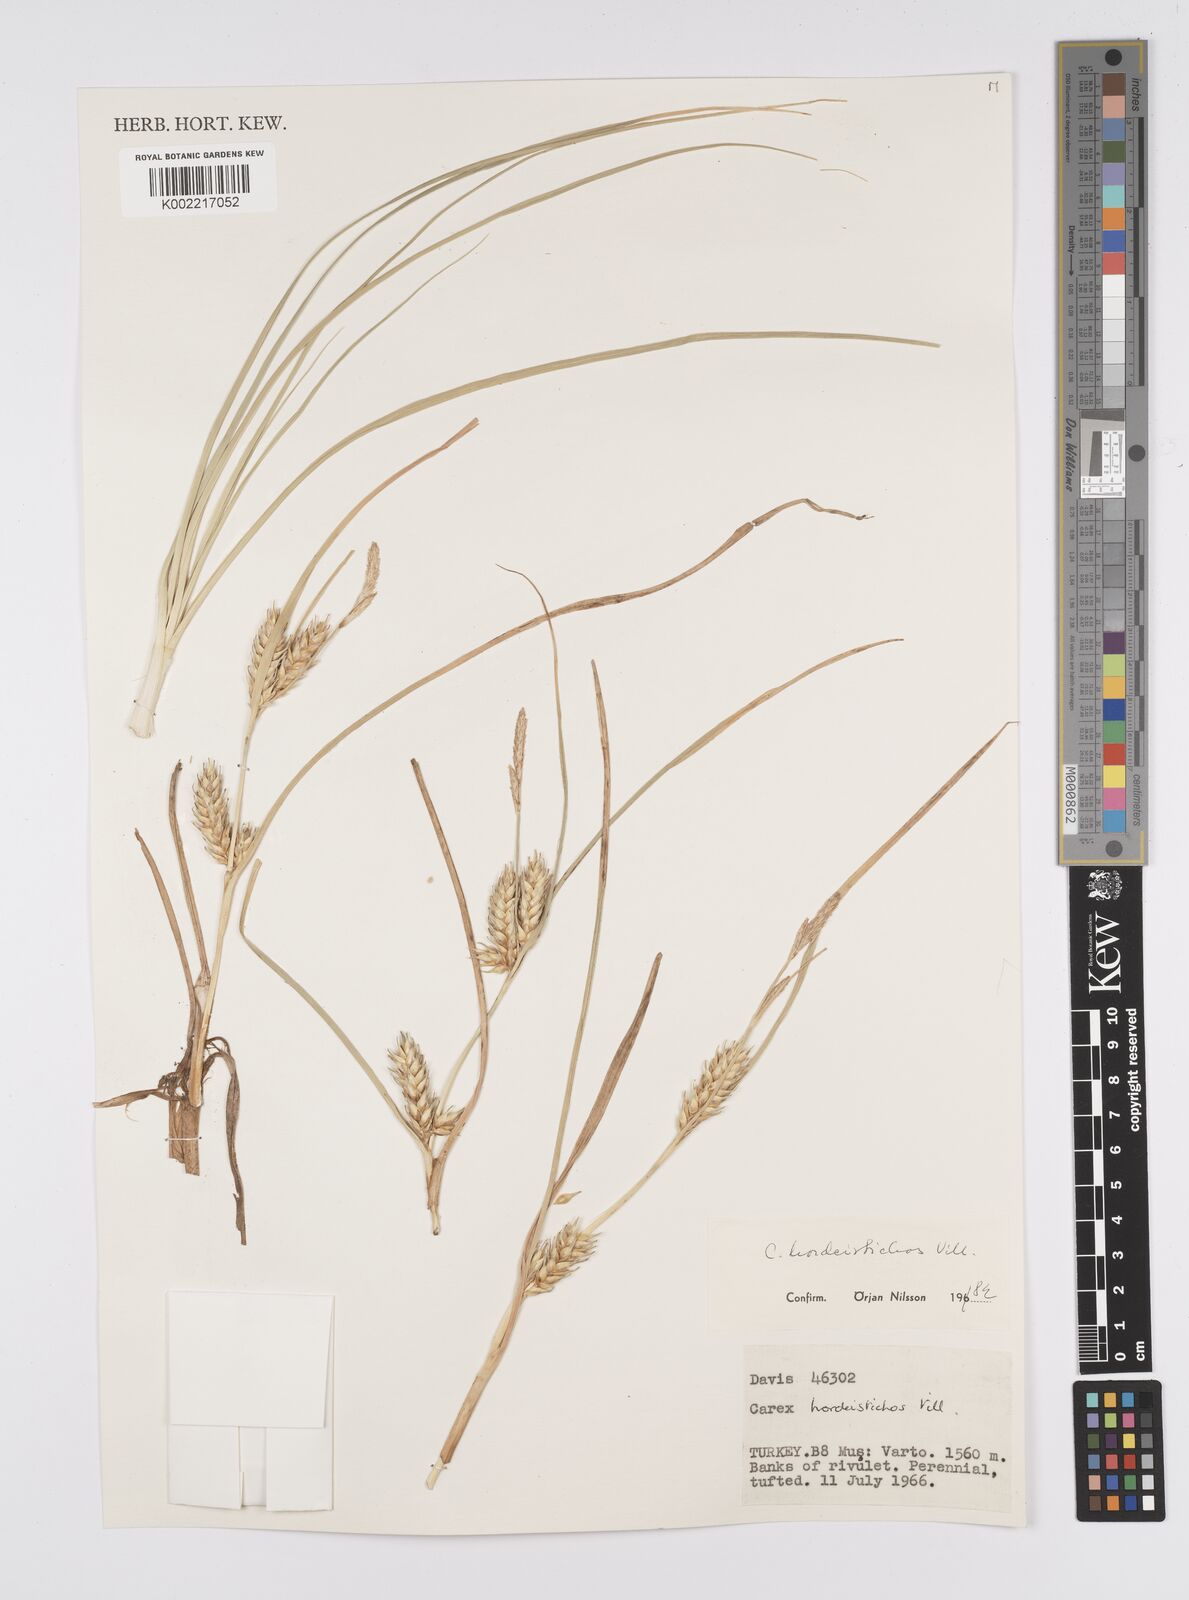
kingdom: Plantae
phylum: Tracheophyta
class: Liliopsida
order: Poales
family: Cyperaceae
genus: Carex
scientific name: Carex hordeistichos
